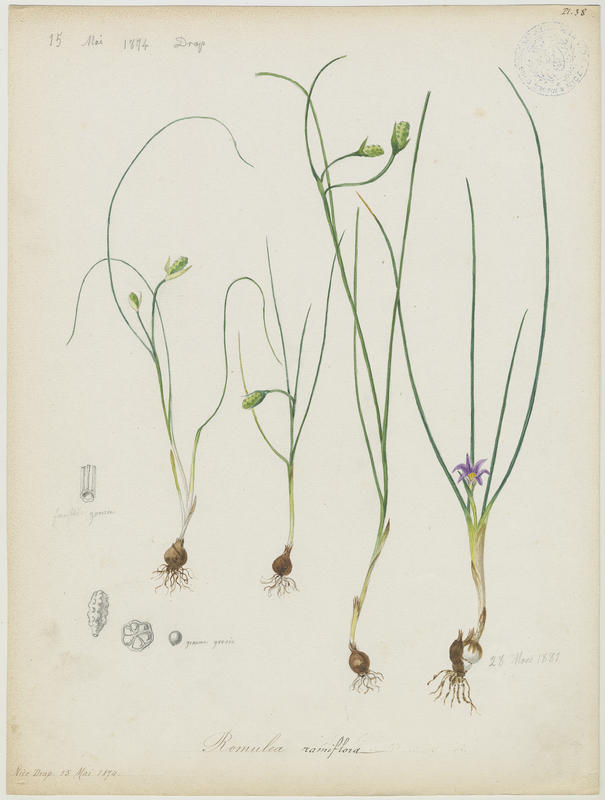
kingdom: Plantae
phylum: Tracheophyta
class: Liliopsida
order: Asparagales
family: Iridaceae
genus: Romulea
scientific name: Romulea ramiflora
